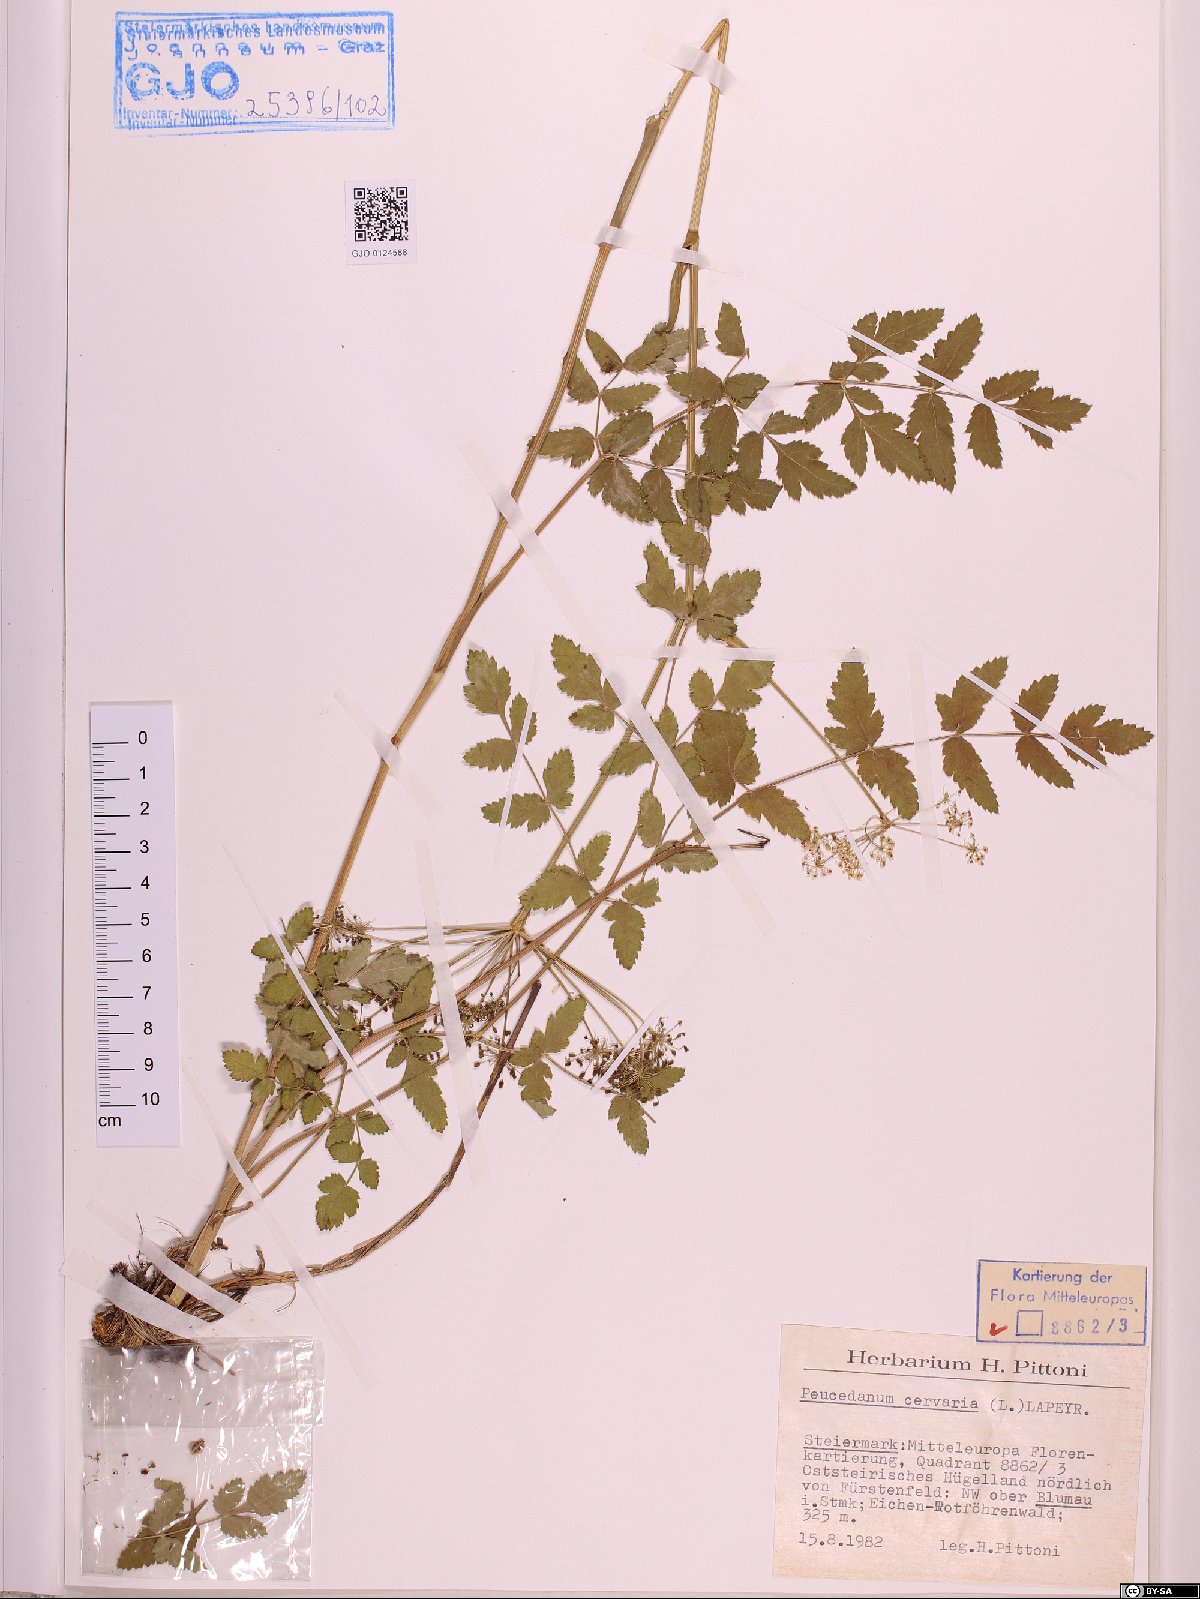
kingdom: Plantae
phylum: Tracheophyta
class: Magnoliopsida
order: Apiales
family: Apiaceae
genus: Cervaria
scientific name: Cervaria rivini
